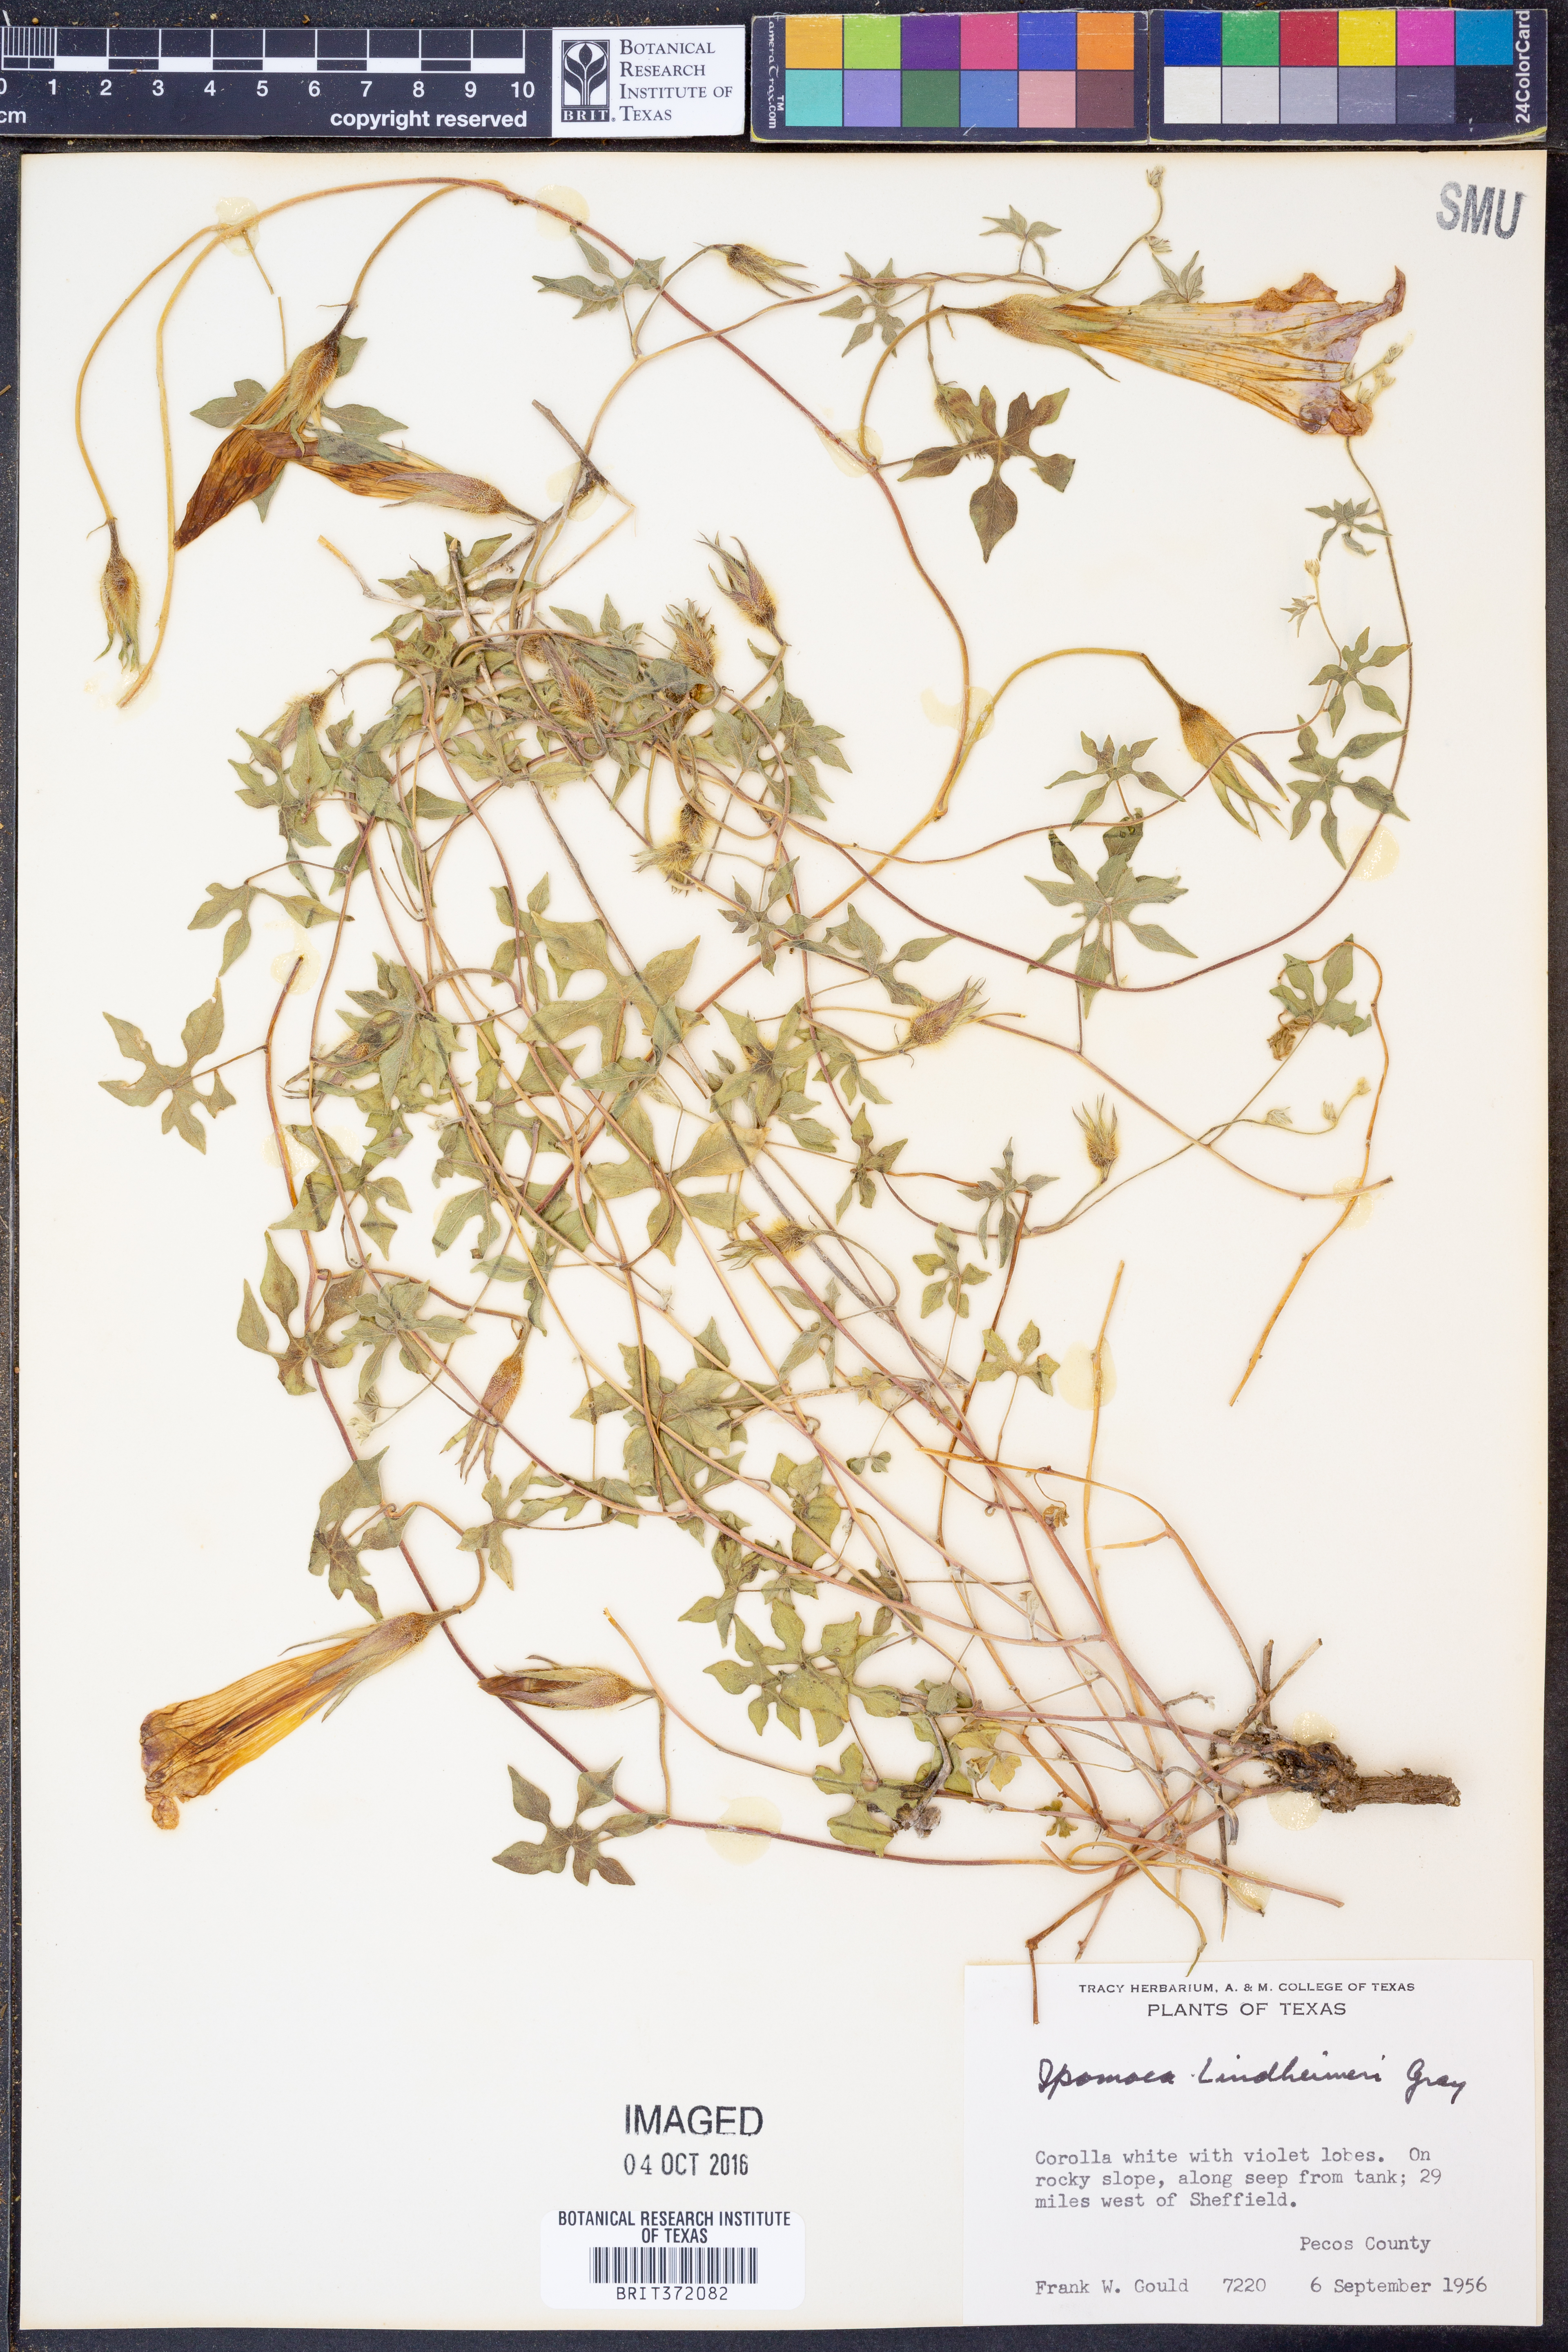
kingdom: Plantae
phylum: Tracheophyta
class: Magnoliopsida
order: Solanales
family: Convolvulaceae
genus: Ipomoea
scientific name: Ipomoea lindheimeri
